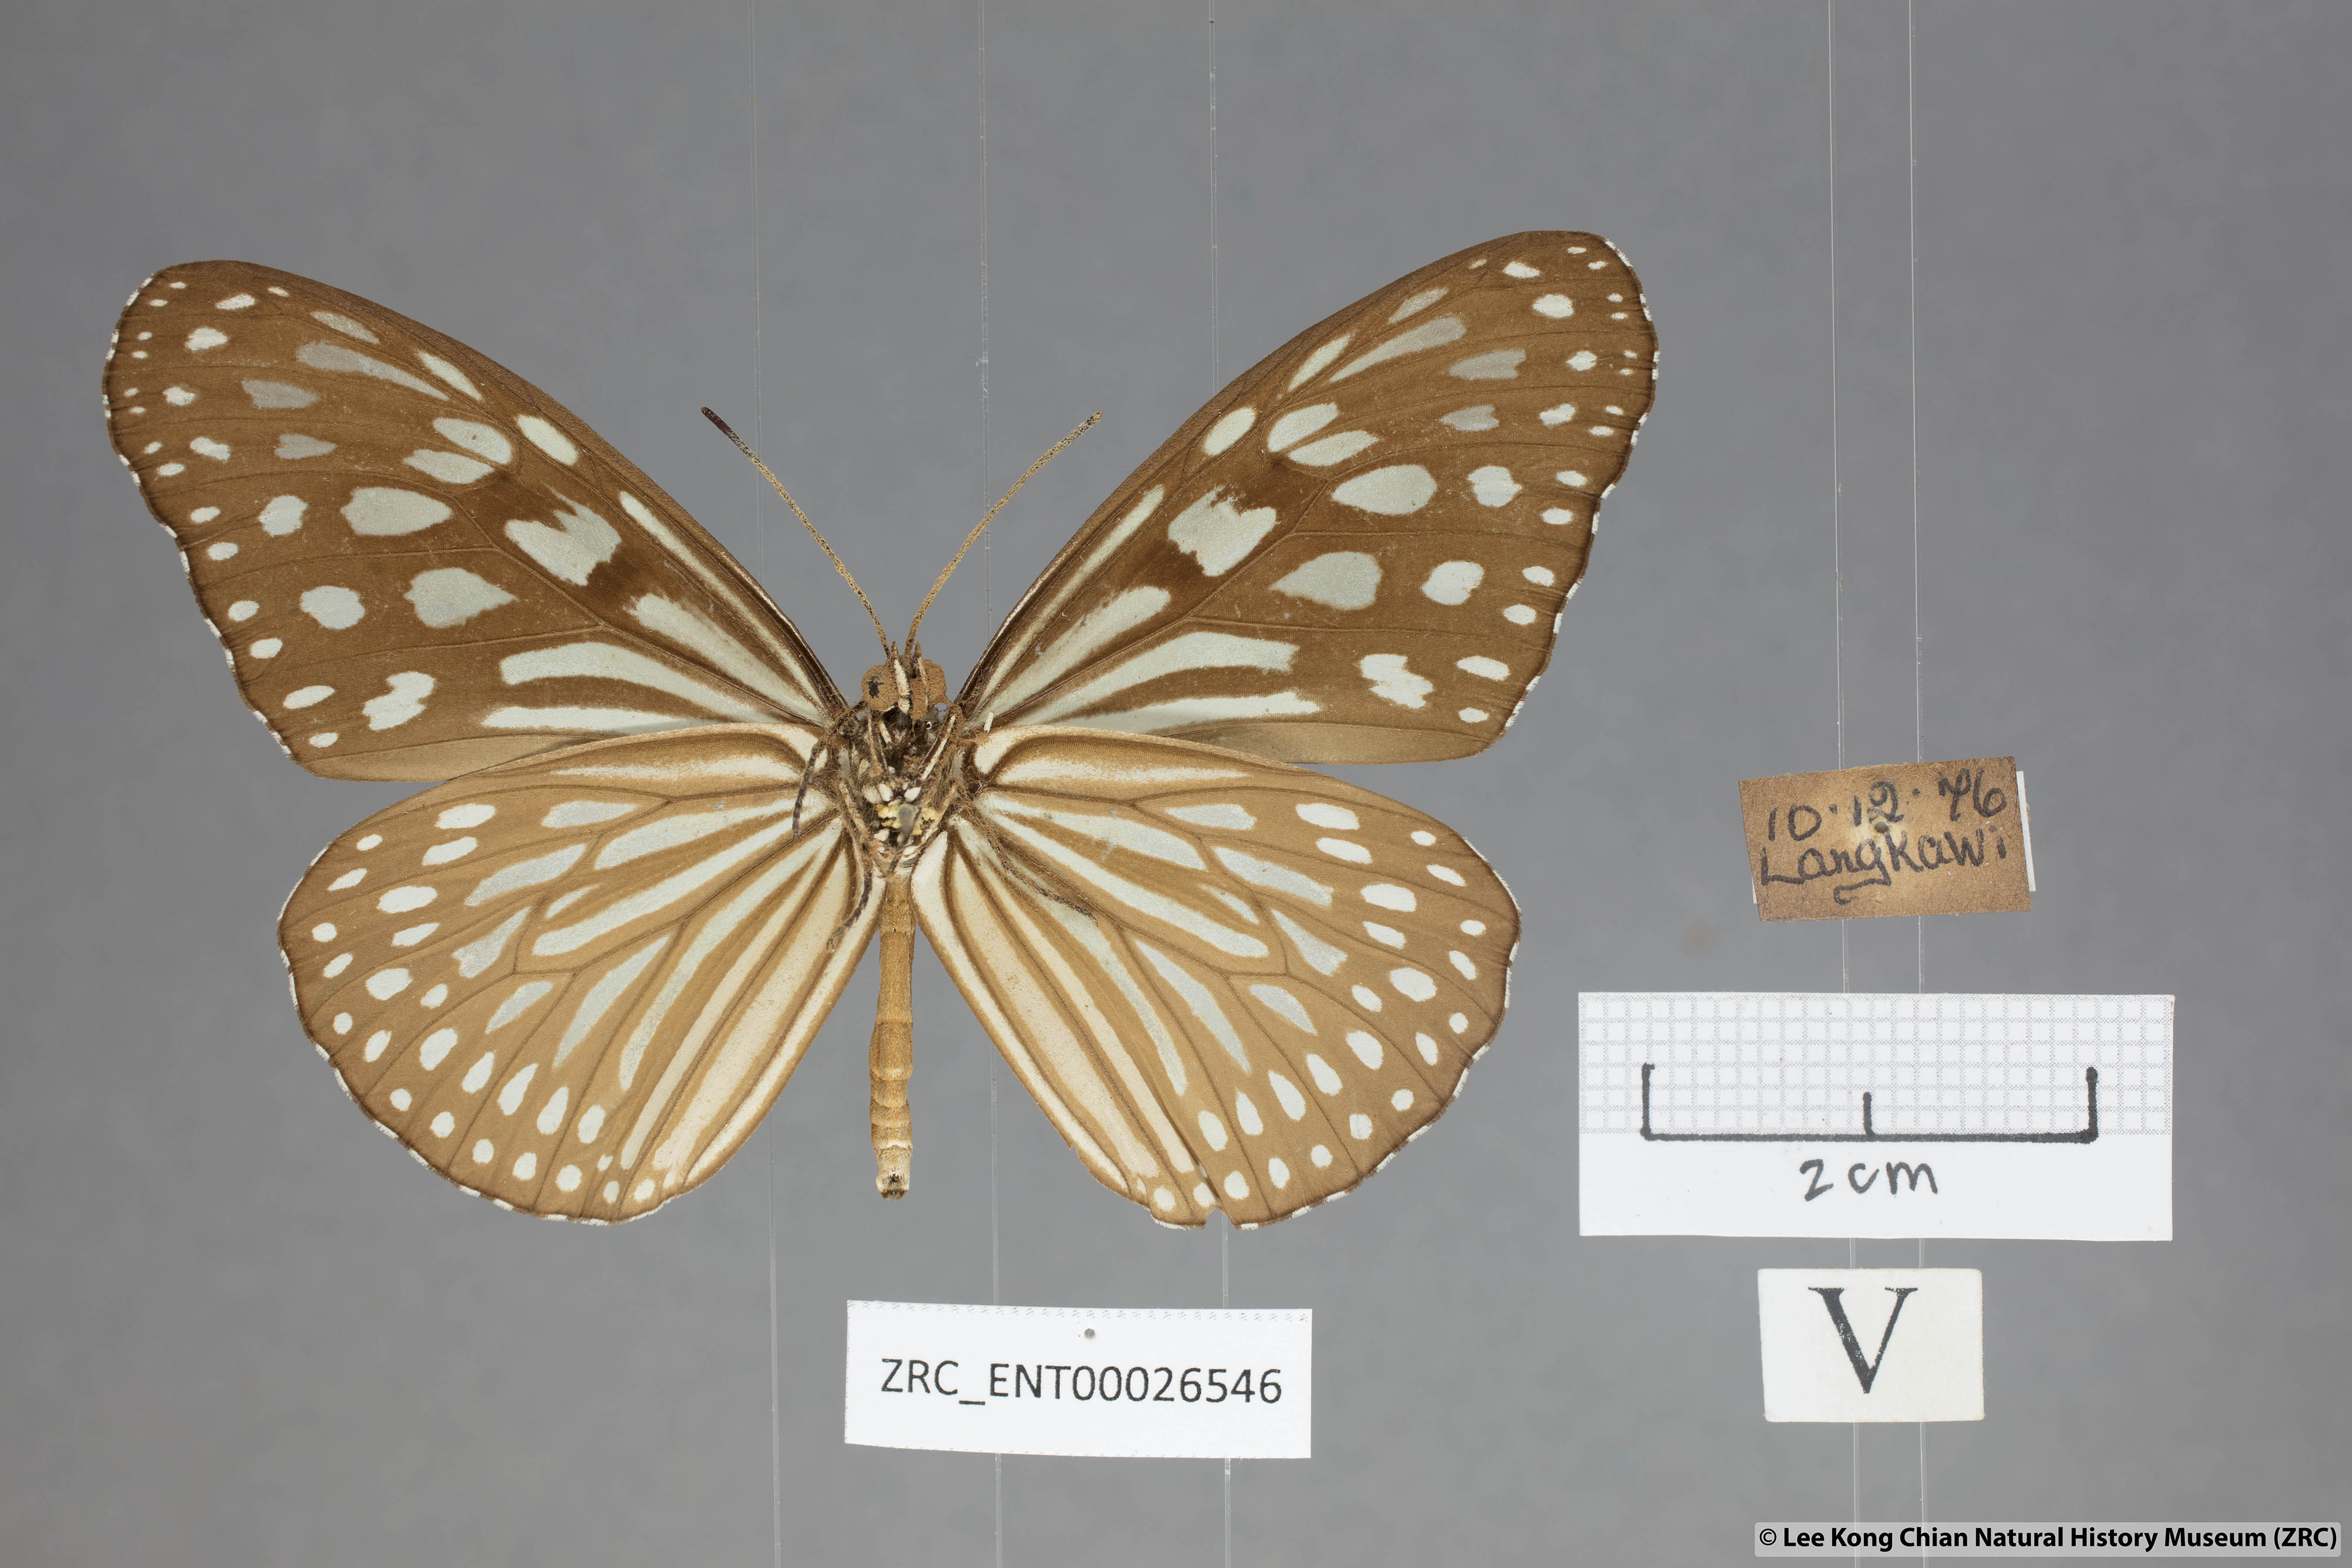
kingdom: Animalia
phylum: Arthropoda
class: Insecta
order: Lepidoptera
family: Nymphalidae
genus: Ideopsis
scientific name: Ideopsis similis
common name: Ceylon blue glassy tiger
